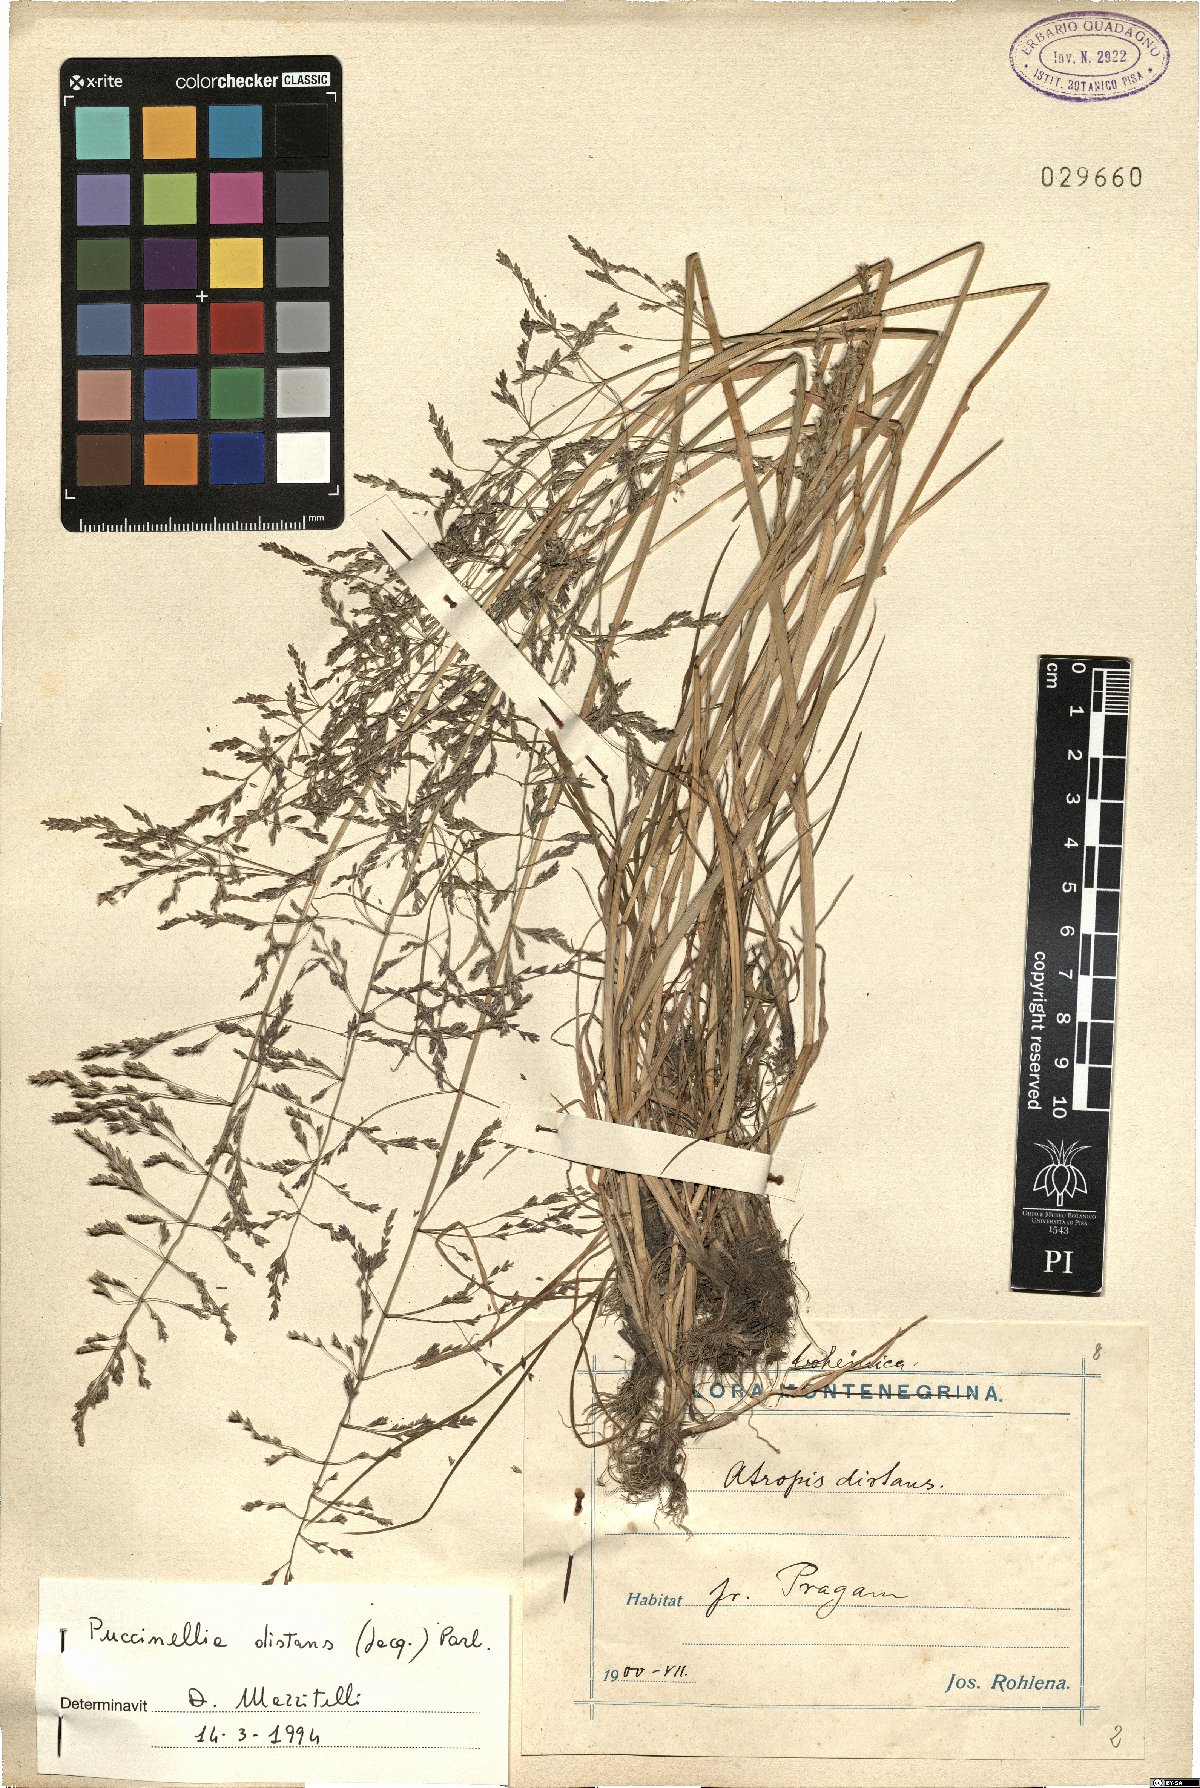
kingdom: Plantae
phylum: Tracheophyta
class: Liliopsida
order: Poales
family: Poaceae
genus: Puccinellia
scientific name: Puccinellia distans
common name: Weeping alkaligrass
